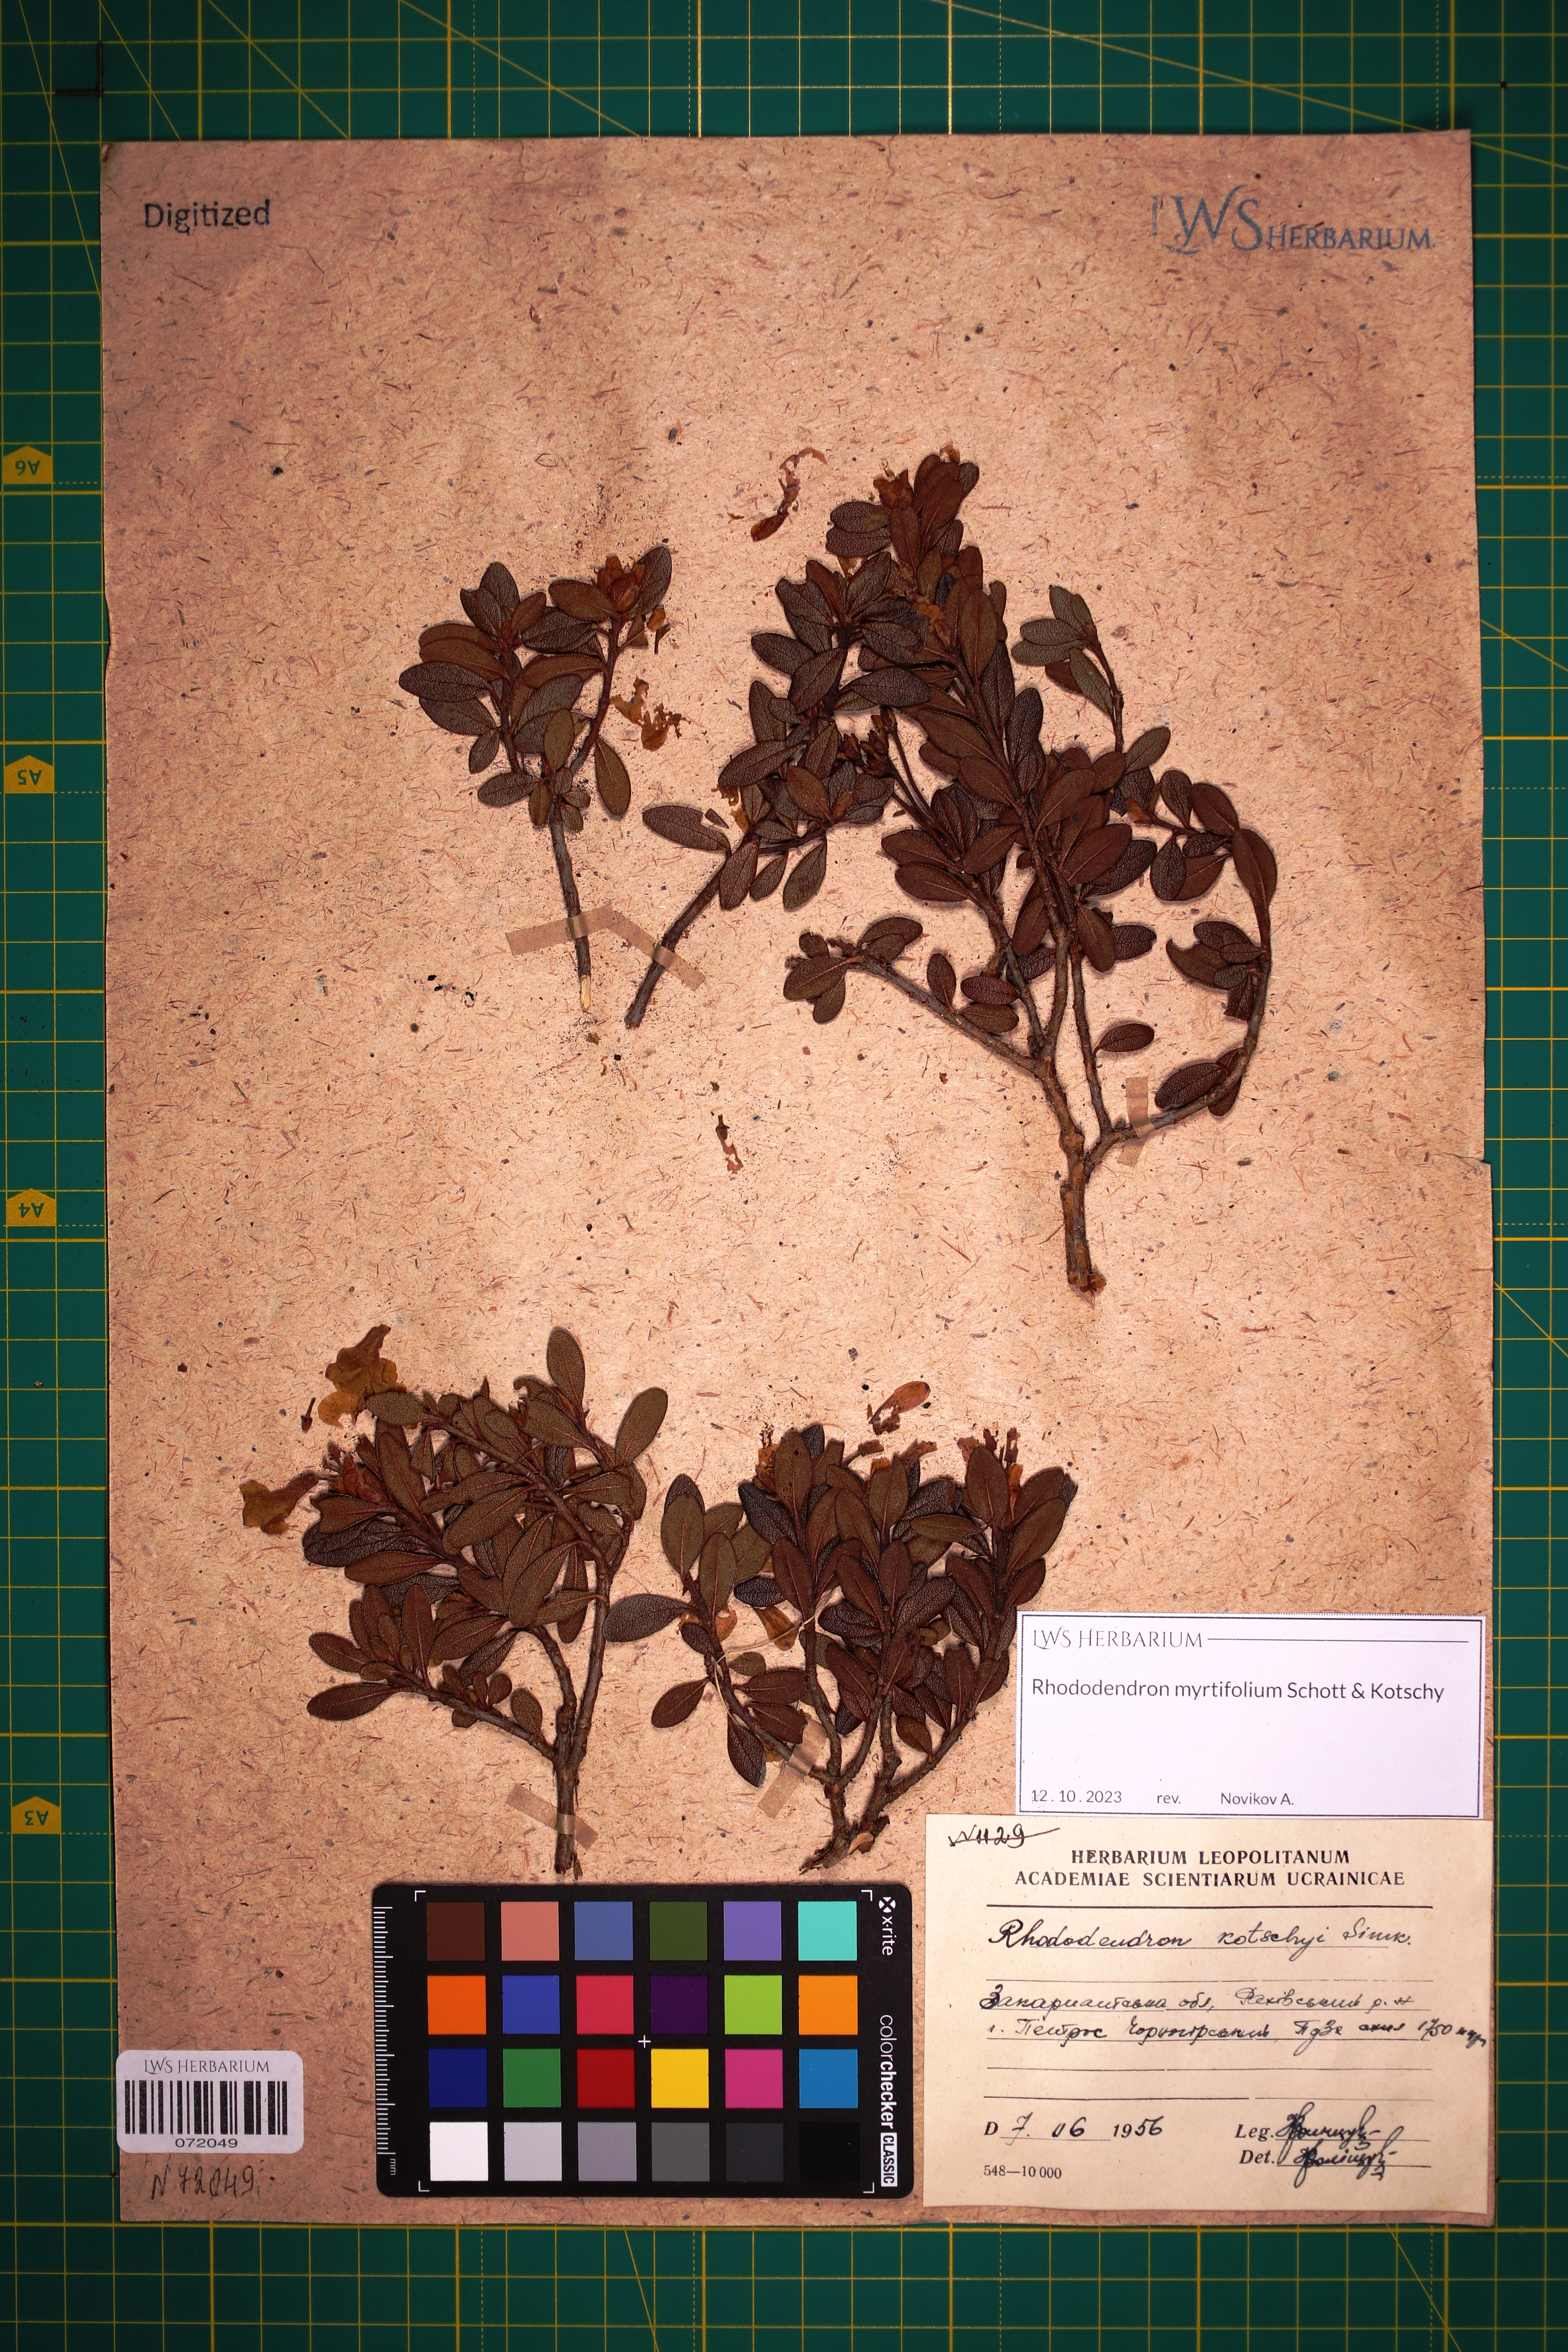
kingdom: Plantae
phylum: Tracheophyta
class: Magnoliopsida
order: Ericales
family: Ericaceae
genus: Rhododendron
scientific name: Rhododendron kotschyi
